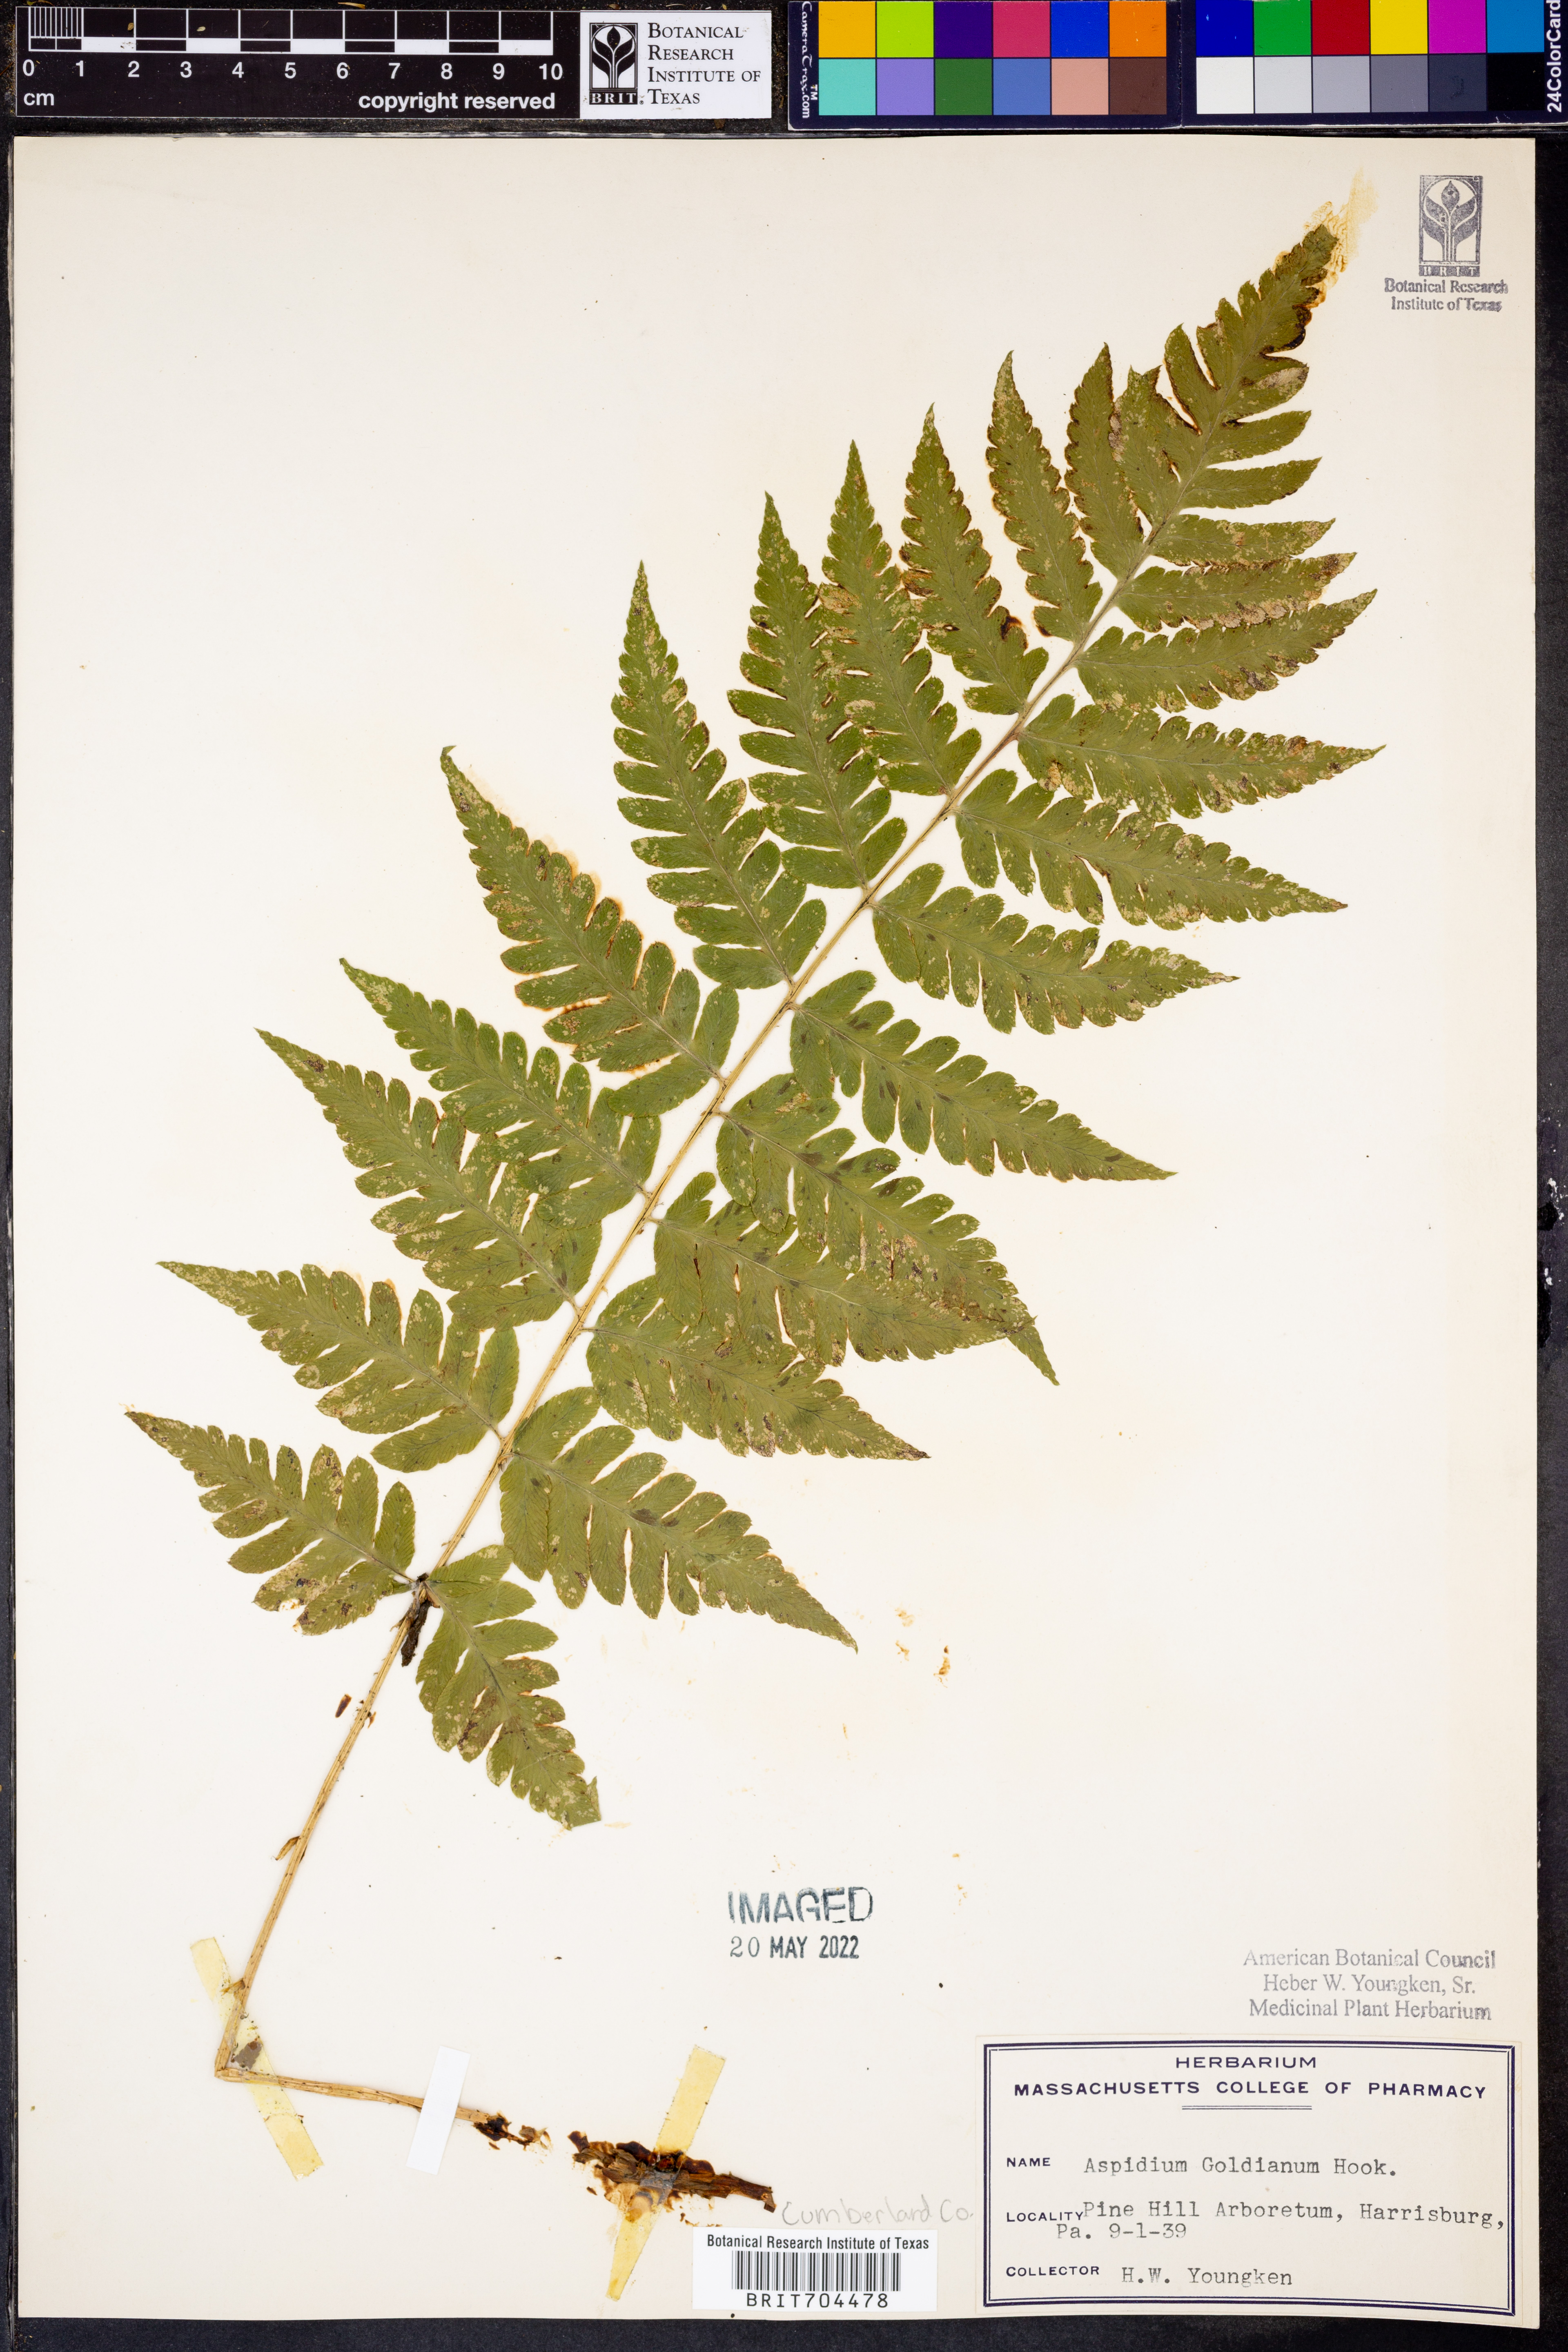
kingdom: Plantae
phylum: Tracheophyta
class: Polypodiopsida
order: Polypodiales
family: Tectariaceae
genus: Tectaria
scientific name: Tectaria Aspidium goldianum
